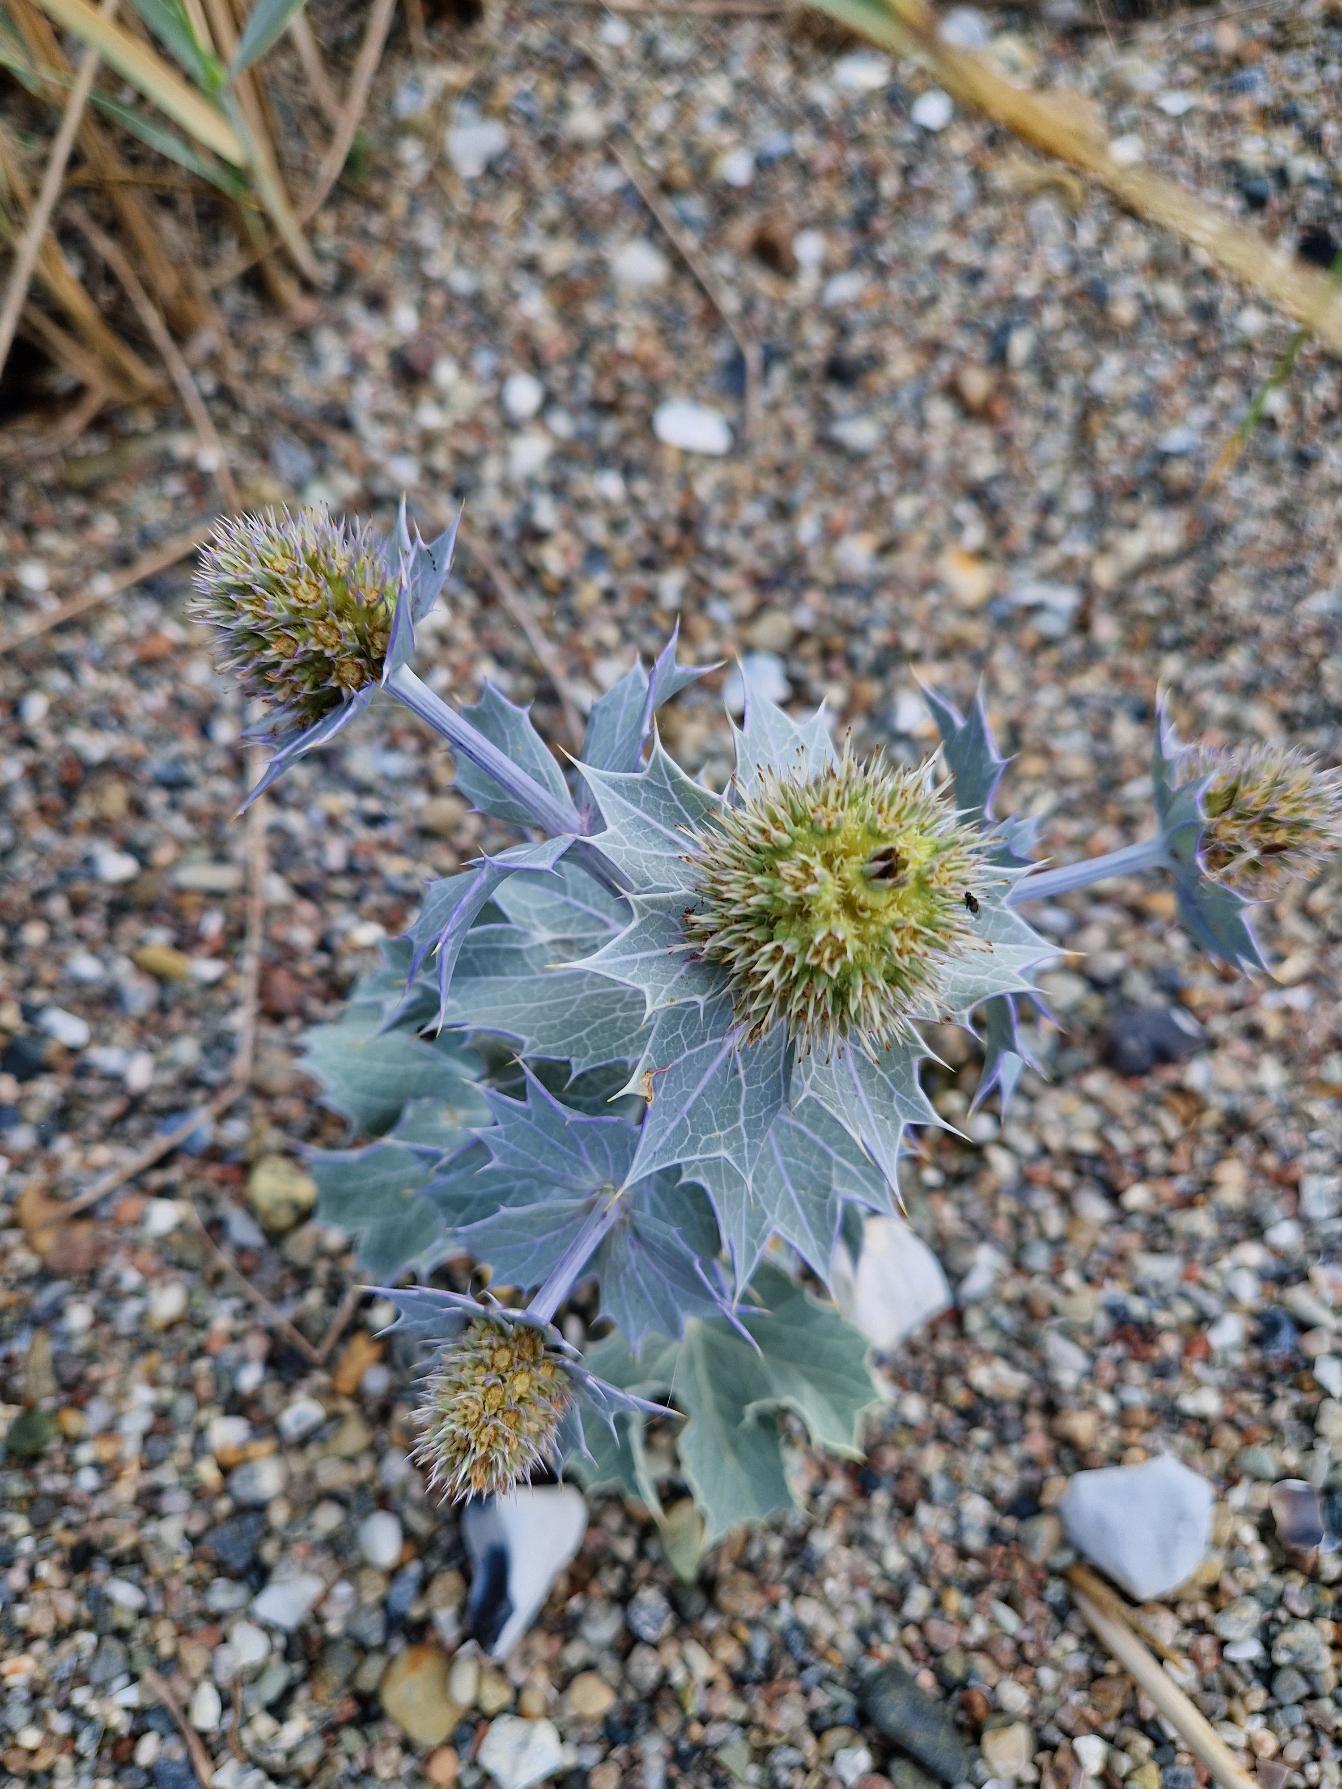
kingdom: Plantae
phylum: Tracheophyta
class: Magnoliopsida
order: Apiales
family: Apiaceae
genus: Eryngium
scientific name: Eryngium maritimum
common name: Strand-mandstro
